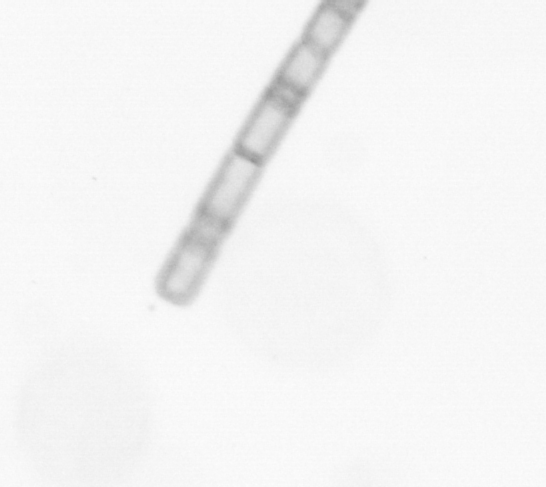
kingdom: Chromista
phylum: Ochrophyta
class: Bacillariophyceae
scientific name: Bacillariophyceae
